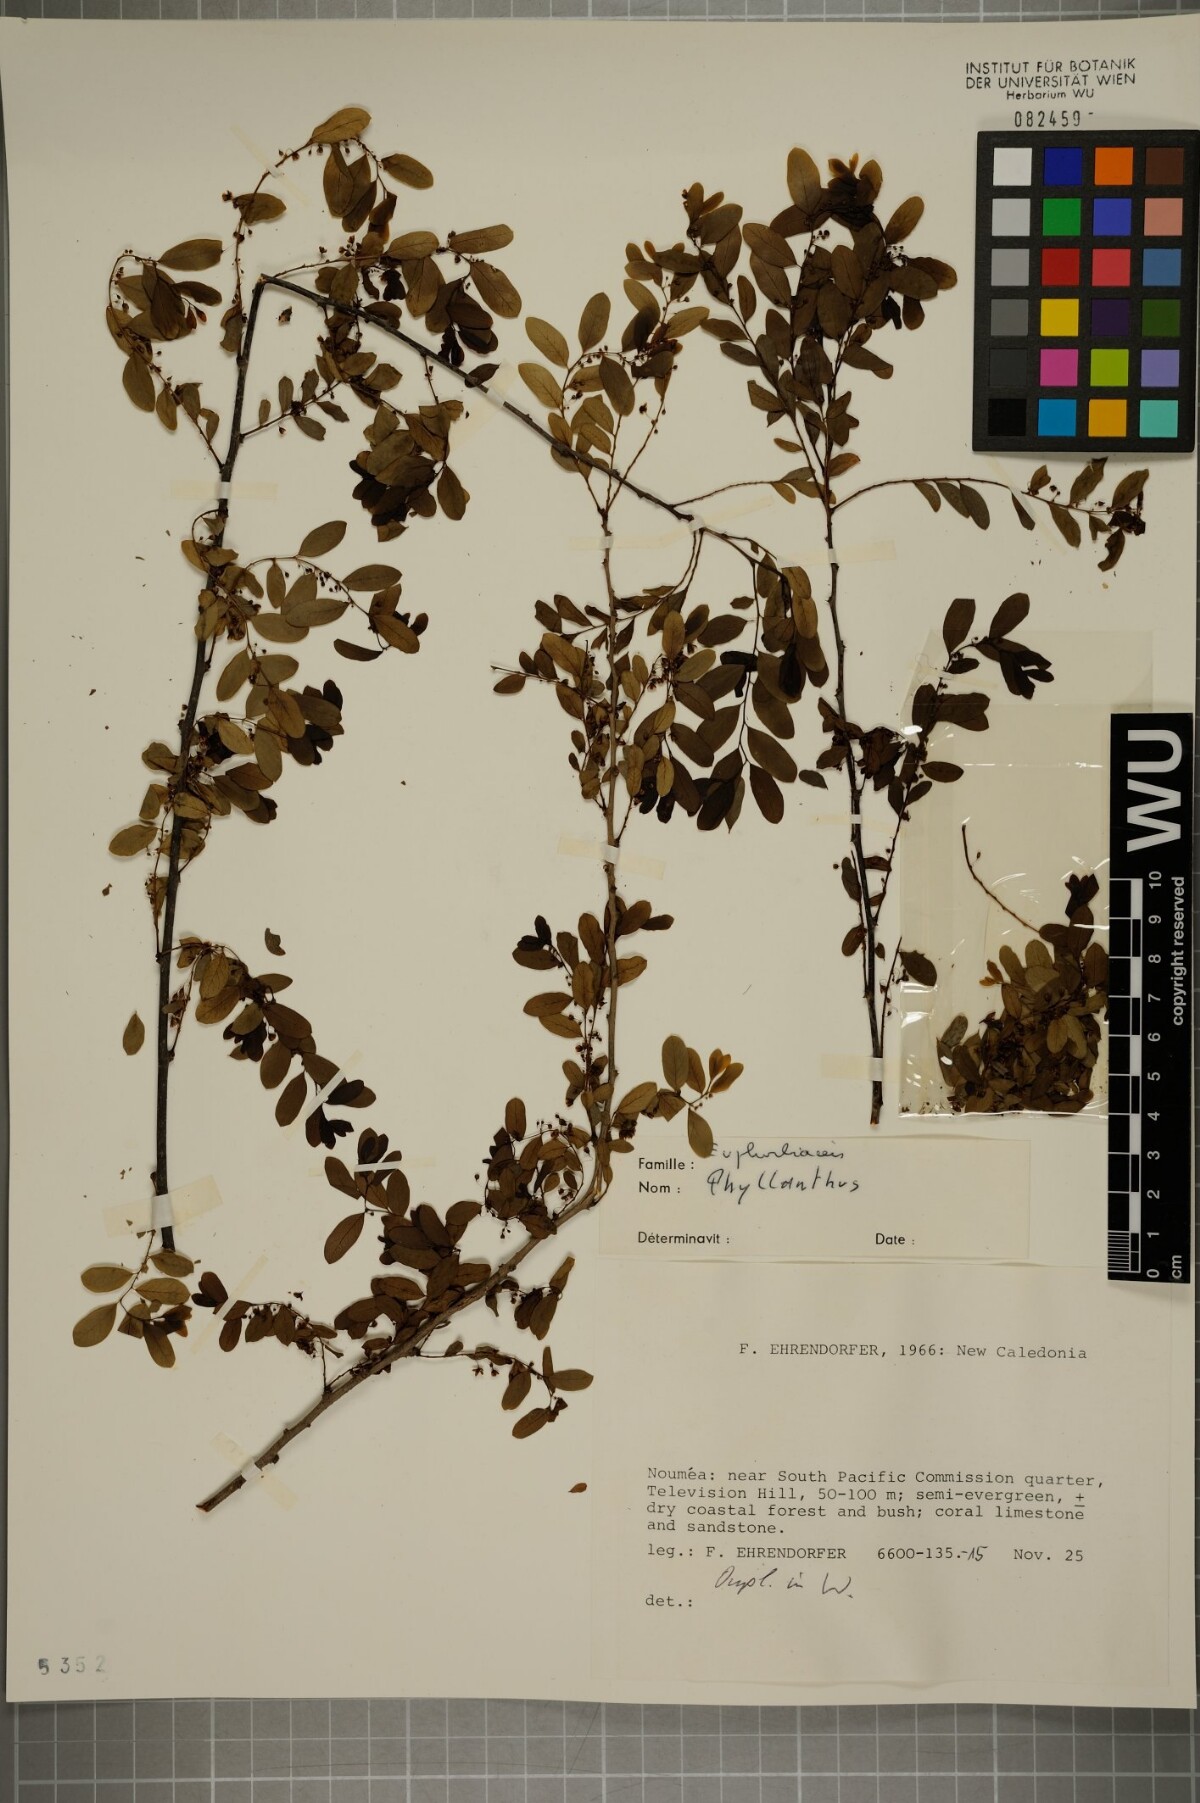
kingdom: Plantae
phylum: Tracheophyta
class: Magnoliopsida
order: Malpighiales
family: Phyllanthaceae
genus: Phyllanthus
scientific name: Phyllanthus
